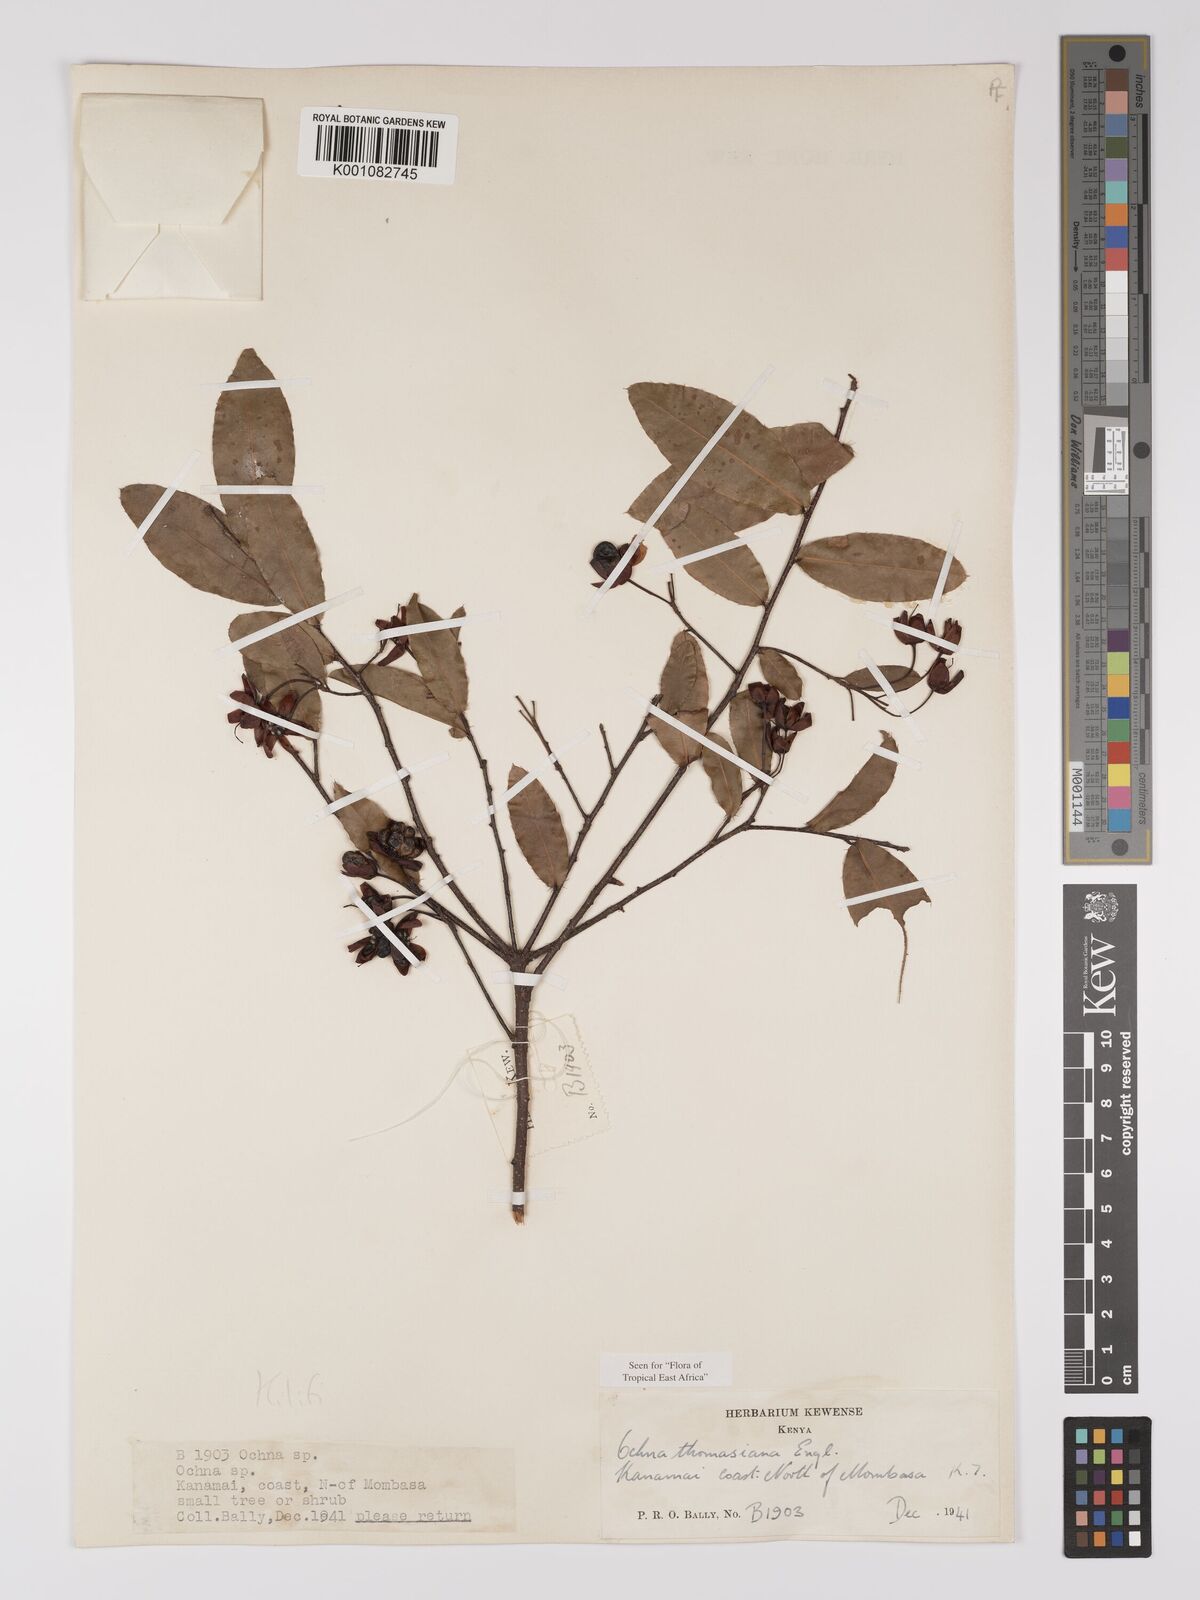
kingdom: Plantae
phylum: Tracheophyta
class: Magnoliopsida
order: Malpighiales
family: Ochnaceae
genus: Ochna
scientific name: Ochna thomasiana
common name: Thomas' bird's-eye bush
